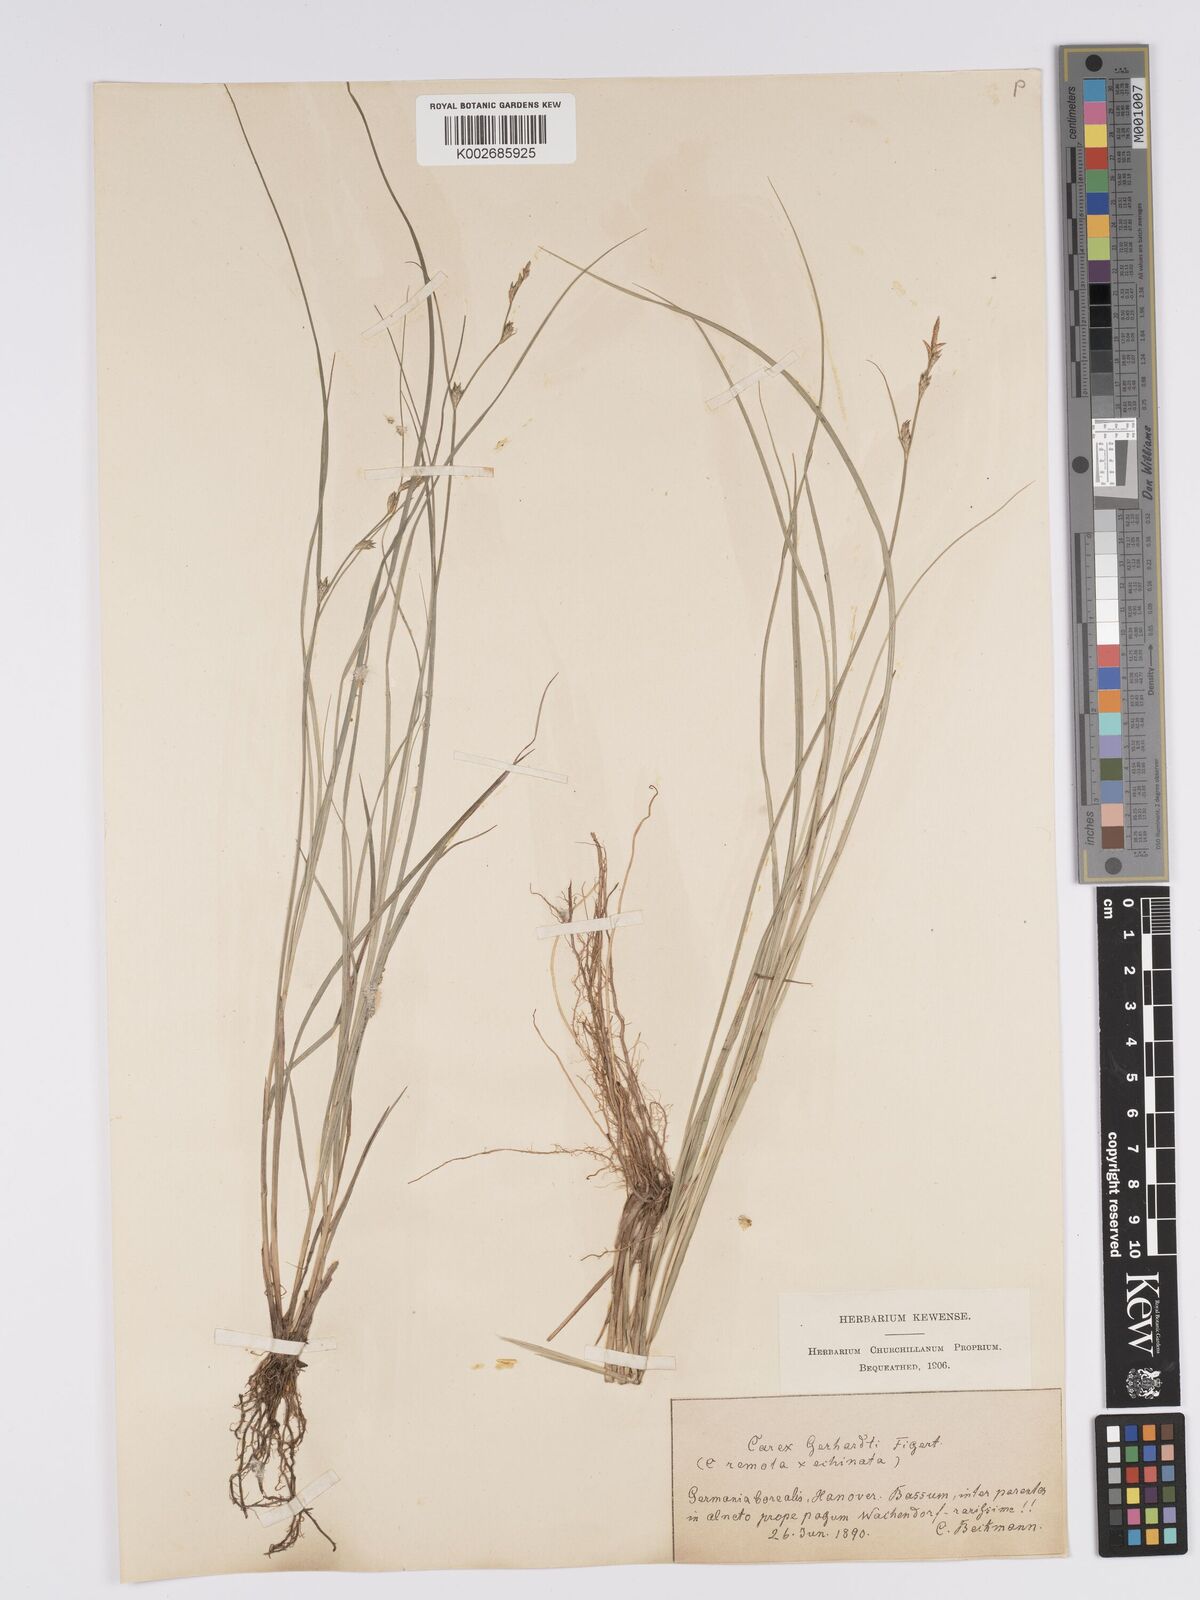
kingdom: Plantae
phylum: Tracheophyta
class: Liliopsida
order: Poales
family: Cyperaceae
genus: Carex
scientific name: Carex remota
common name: Remote sedge
